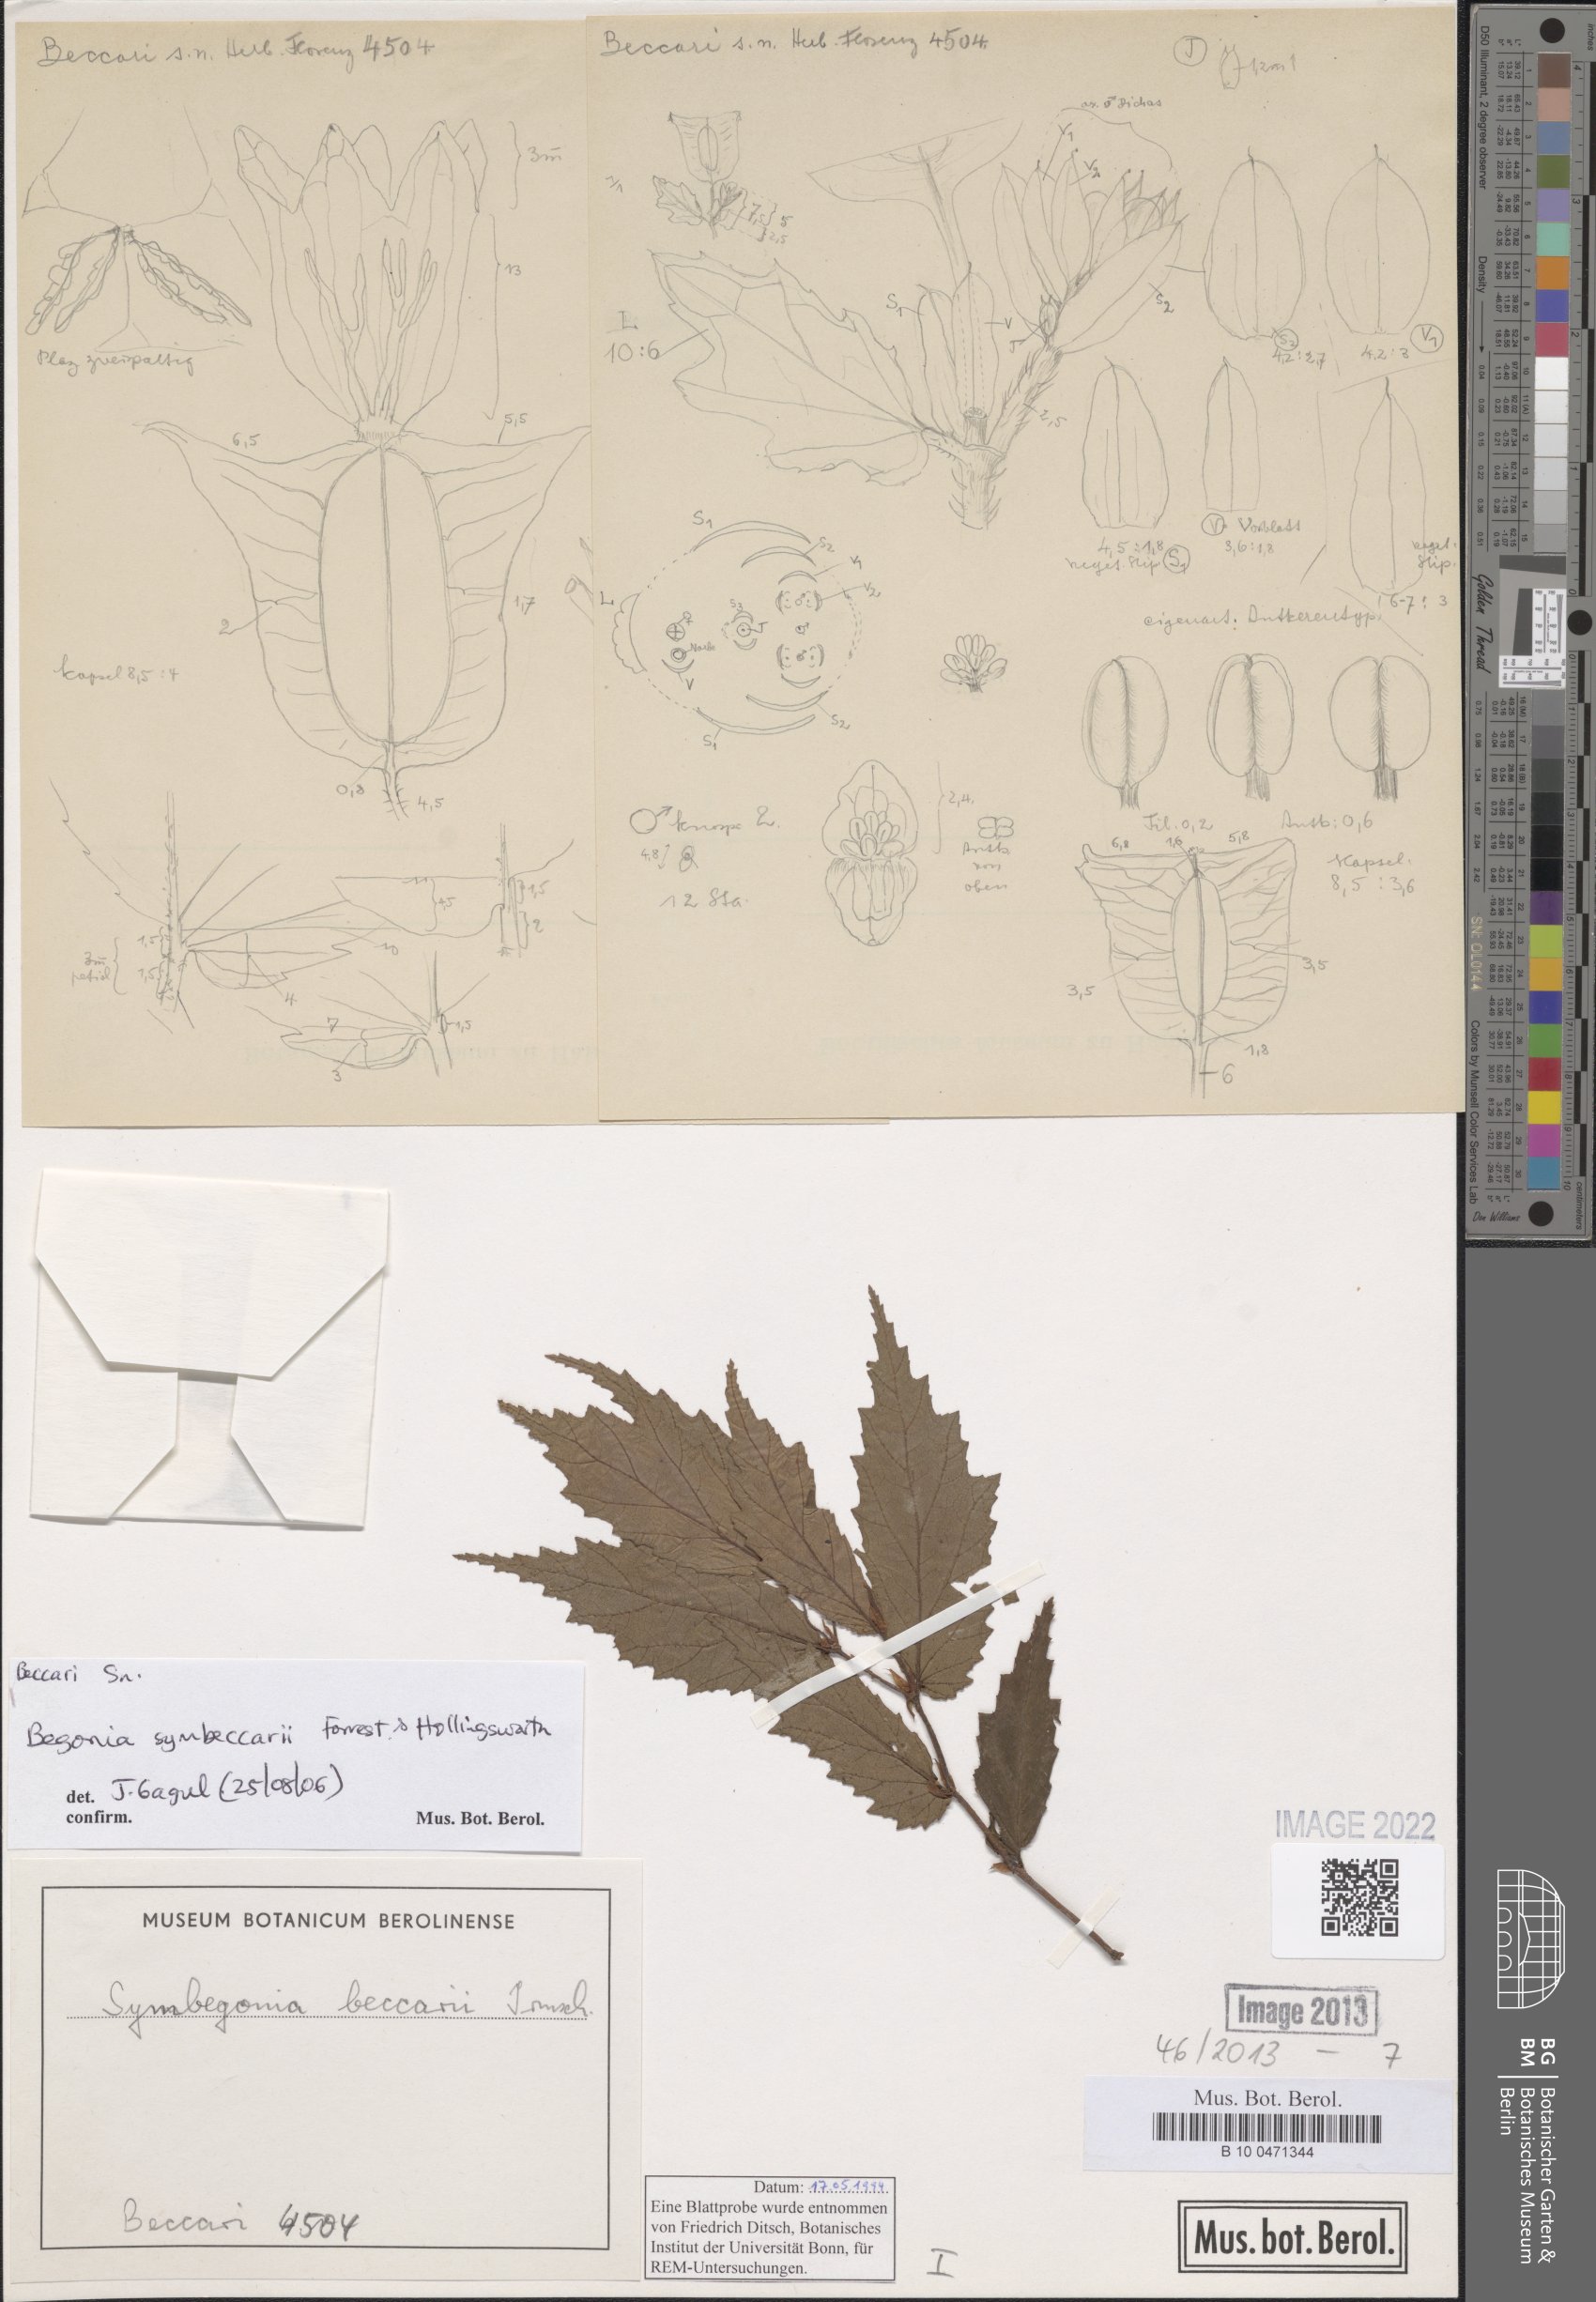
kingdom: Plantae
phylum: Tracheophyta
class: Magnoliopsida
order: Cucurbitales
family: Begoniaceae
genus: Begonia
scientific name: Begonia arfakensis
